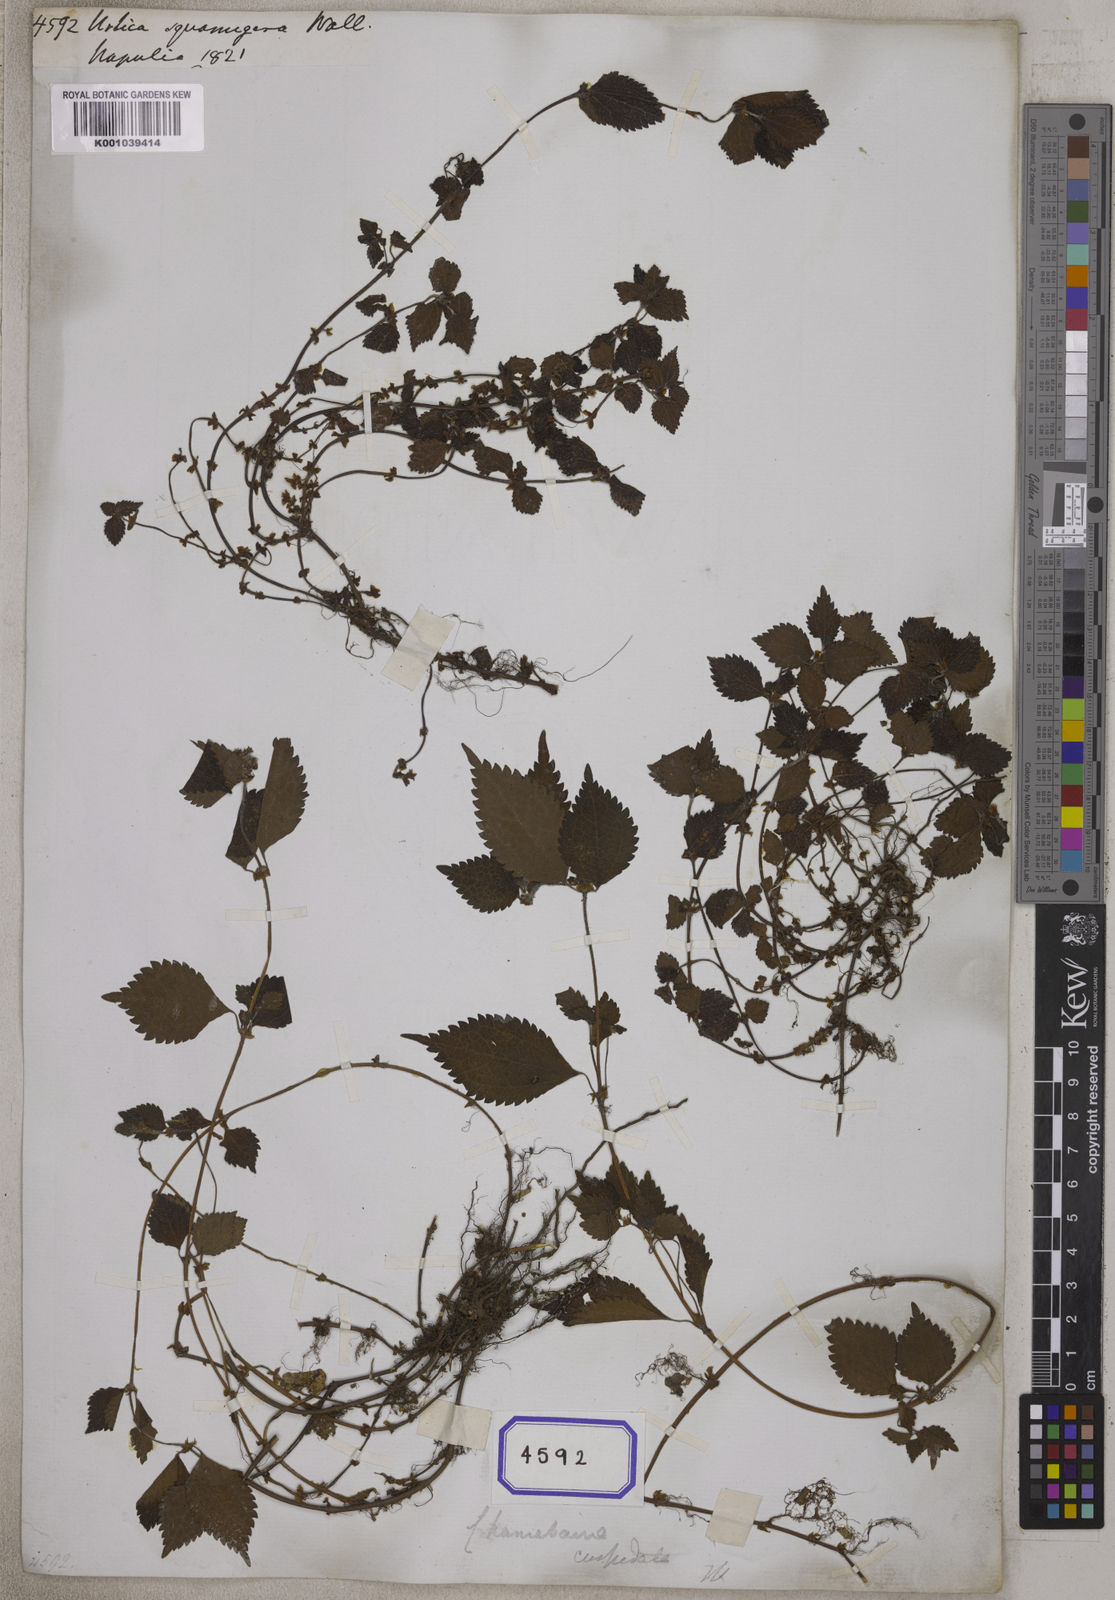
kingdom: Plantae
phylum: Tracheophyta
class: Magnoliopsida
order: Rosales
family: Urticaceae
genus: Chamabainia
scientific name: Chamabainia cuspidata
